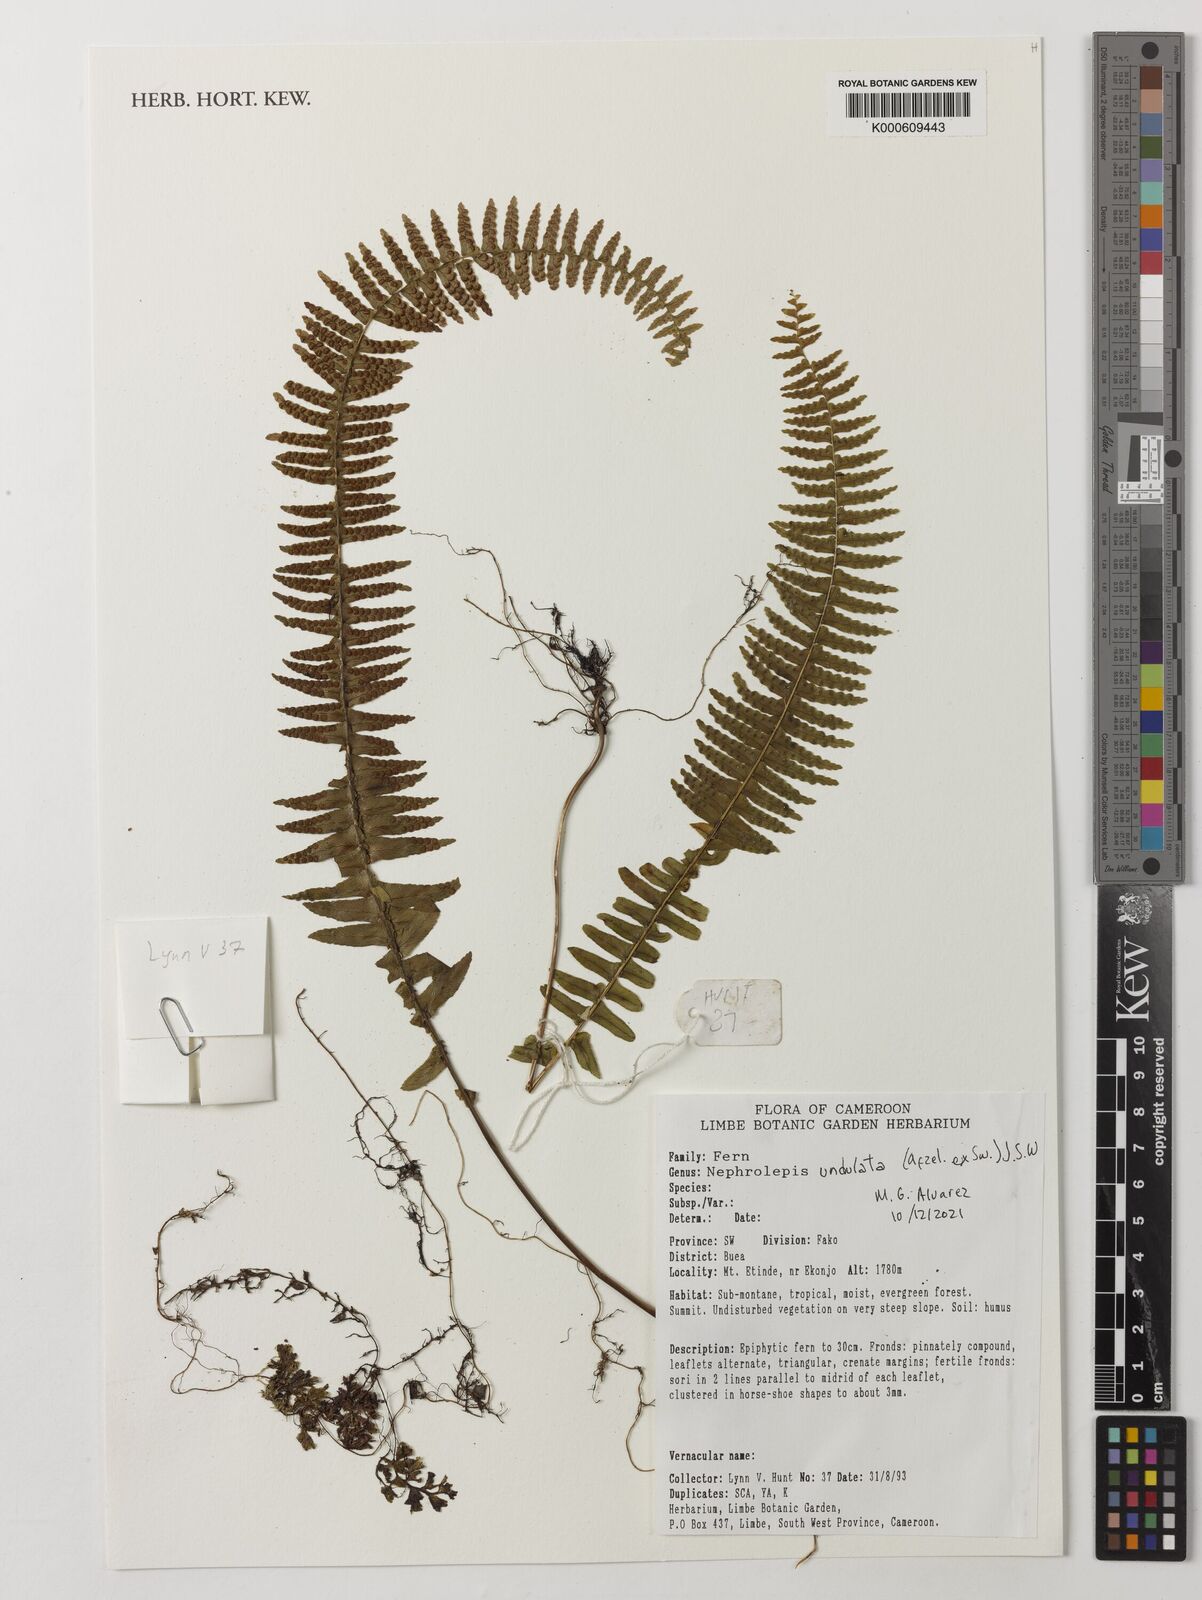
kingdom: Plantae
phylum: Tracheophyta
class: Polypodiopsida
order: Polypodiales
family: Nephrolepidaceae
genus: Nephrolepis
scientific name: Nephrolepis undulata
